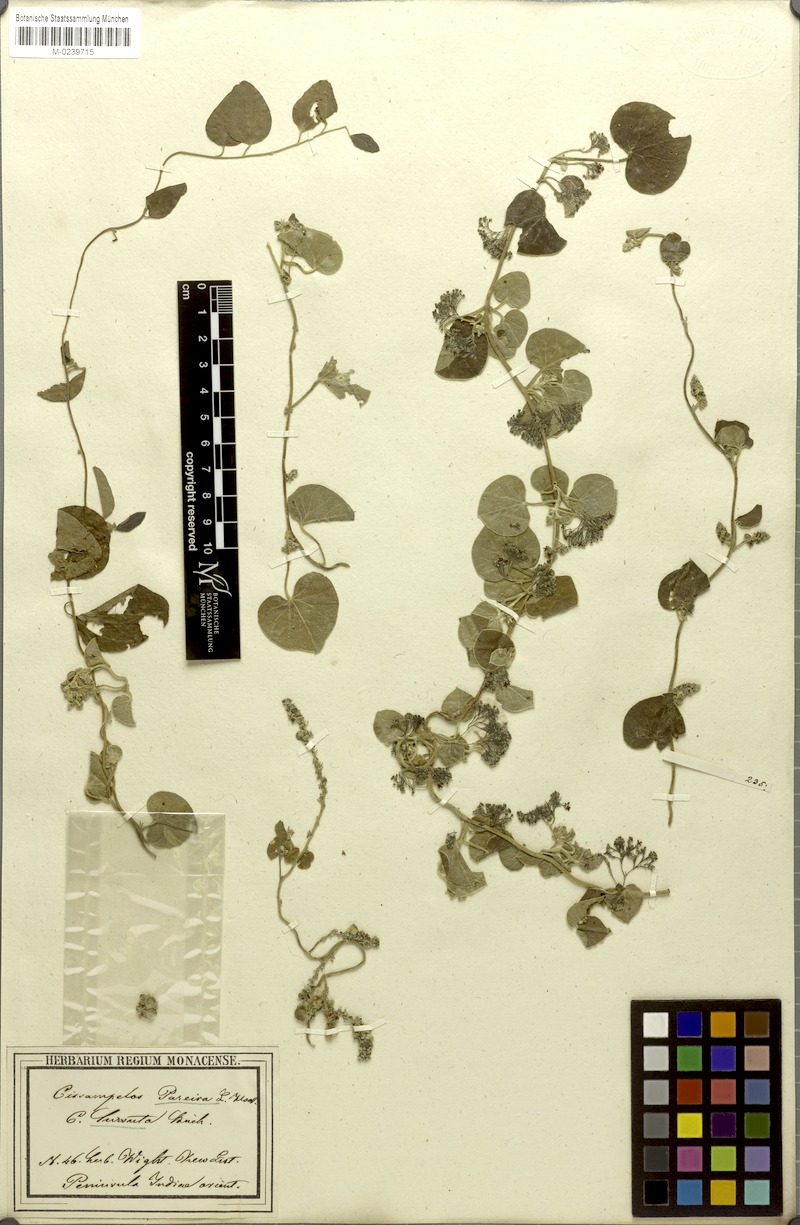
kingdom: Plantae
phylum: Tracheophyta
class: Magnoliopsida
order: Ranunculales
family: Menispermaceae
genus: Cissampelos
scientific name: Cissampelos pareira
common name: Velvetleaf
